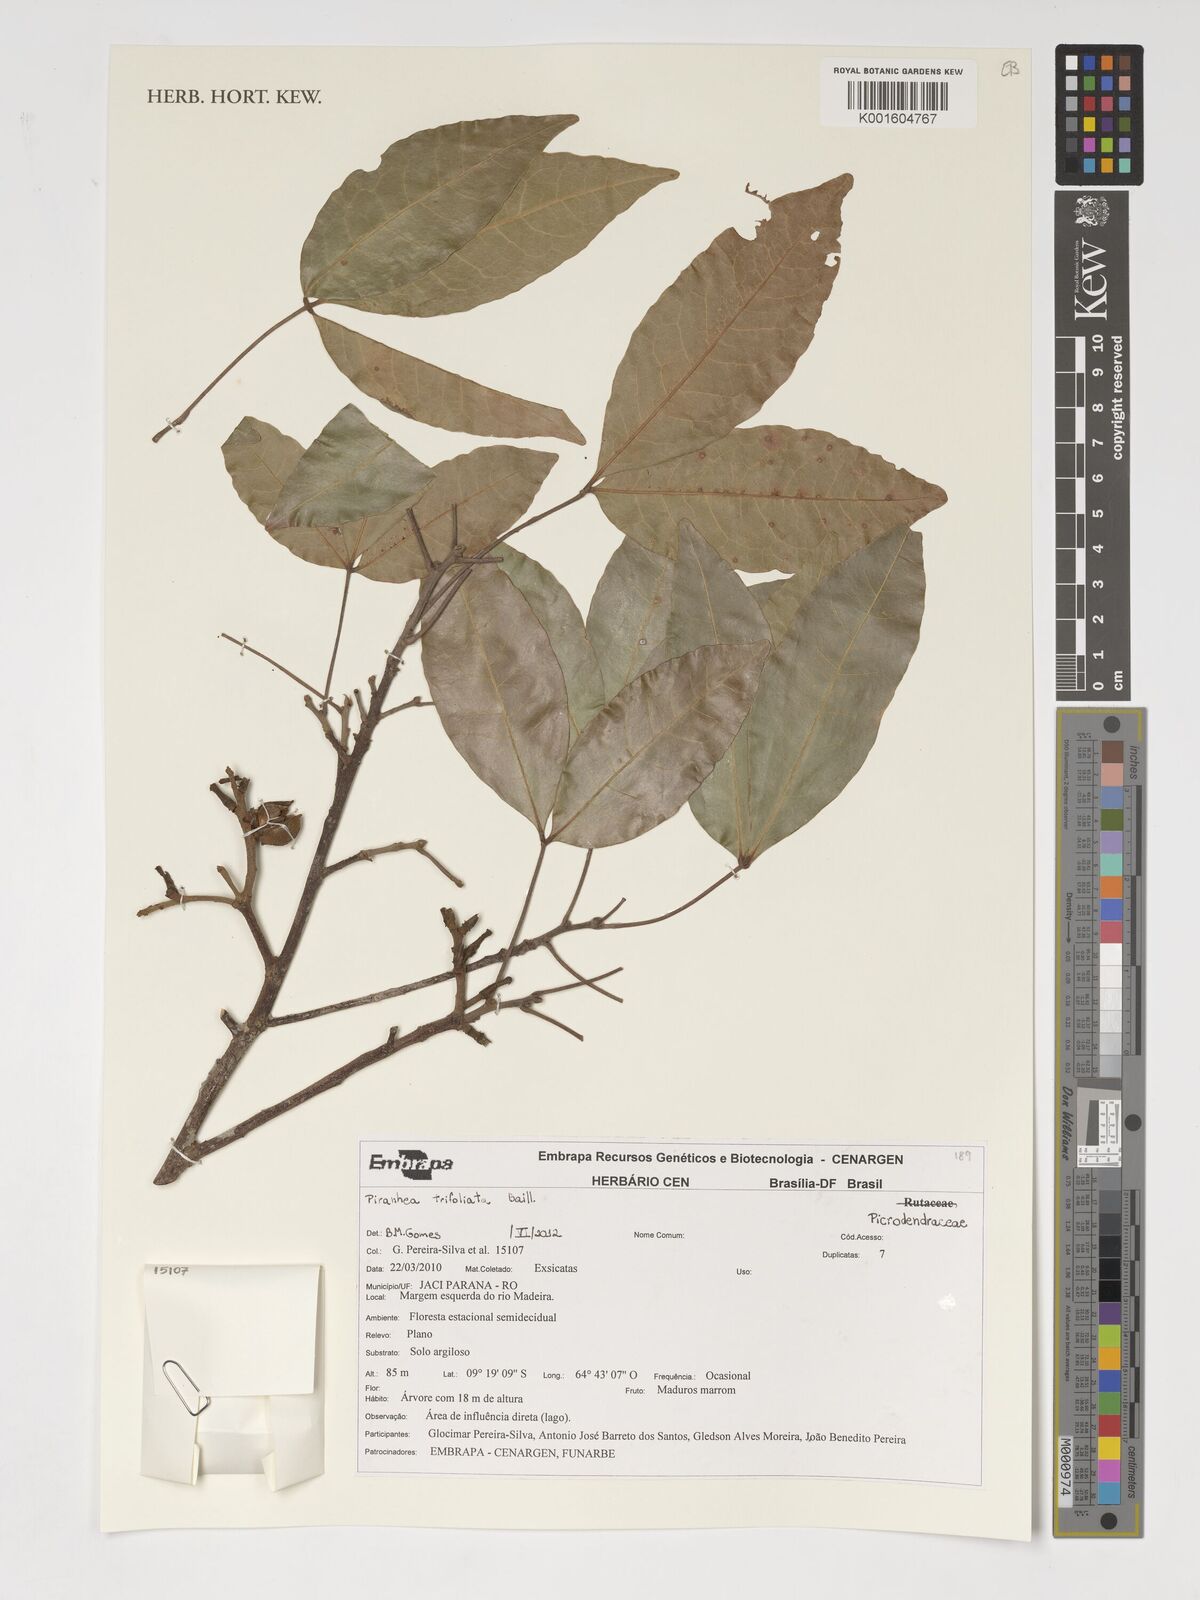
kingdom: Plantae
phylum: Tracheophyta
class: Magnoliopsida
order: Malpighiales
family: Picrodendraceae
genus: Piranhea
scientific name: Piranhea trifoliolata
